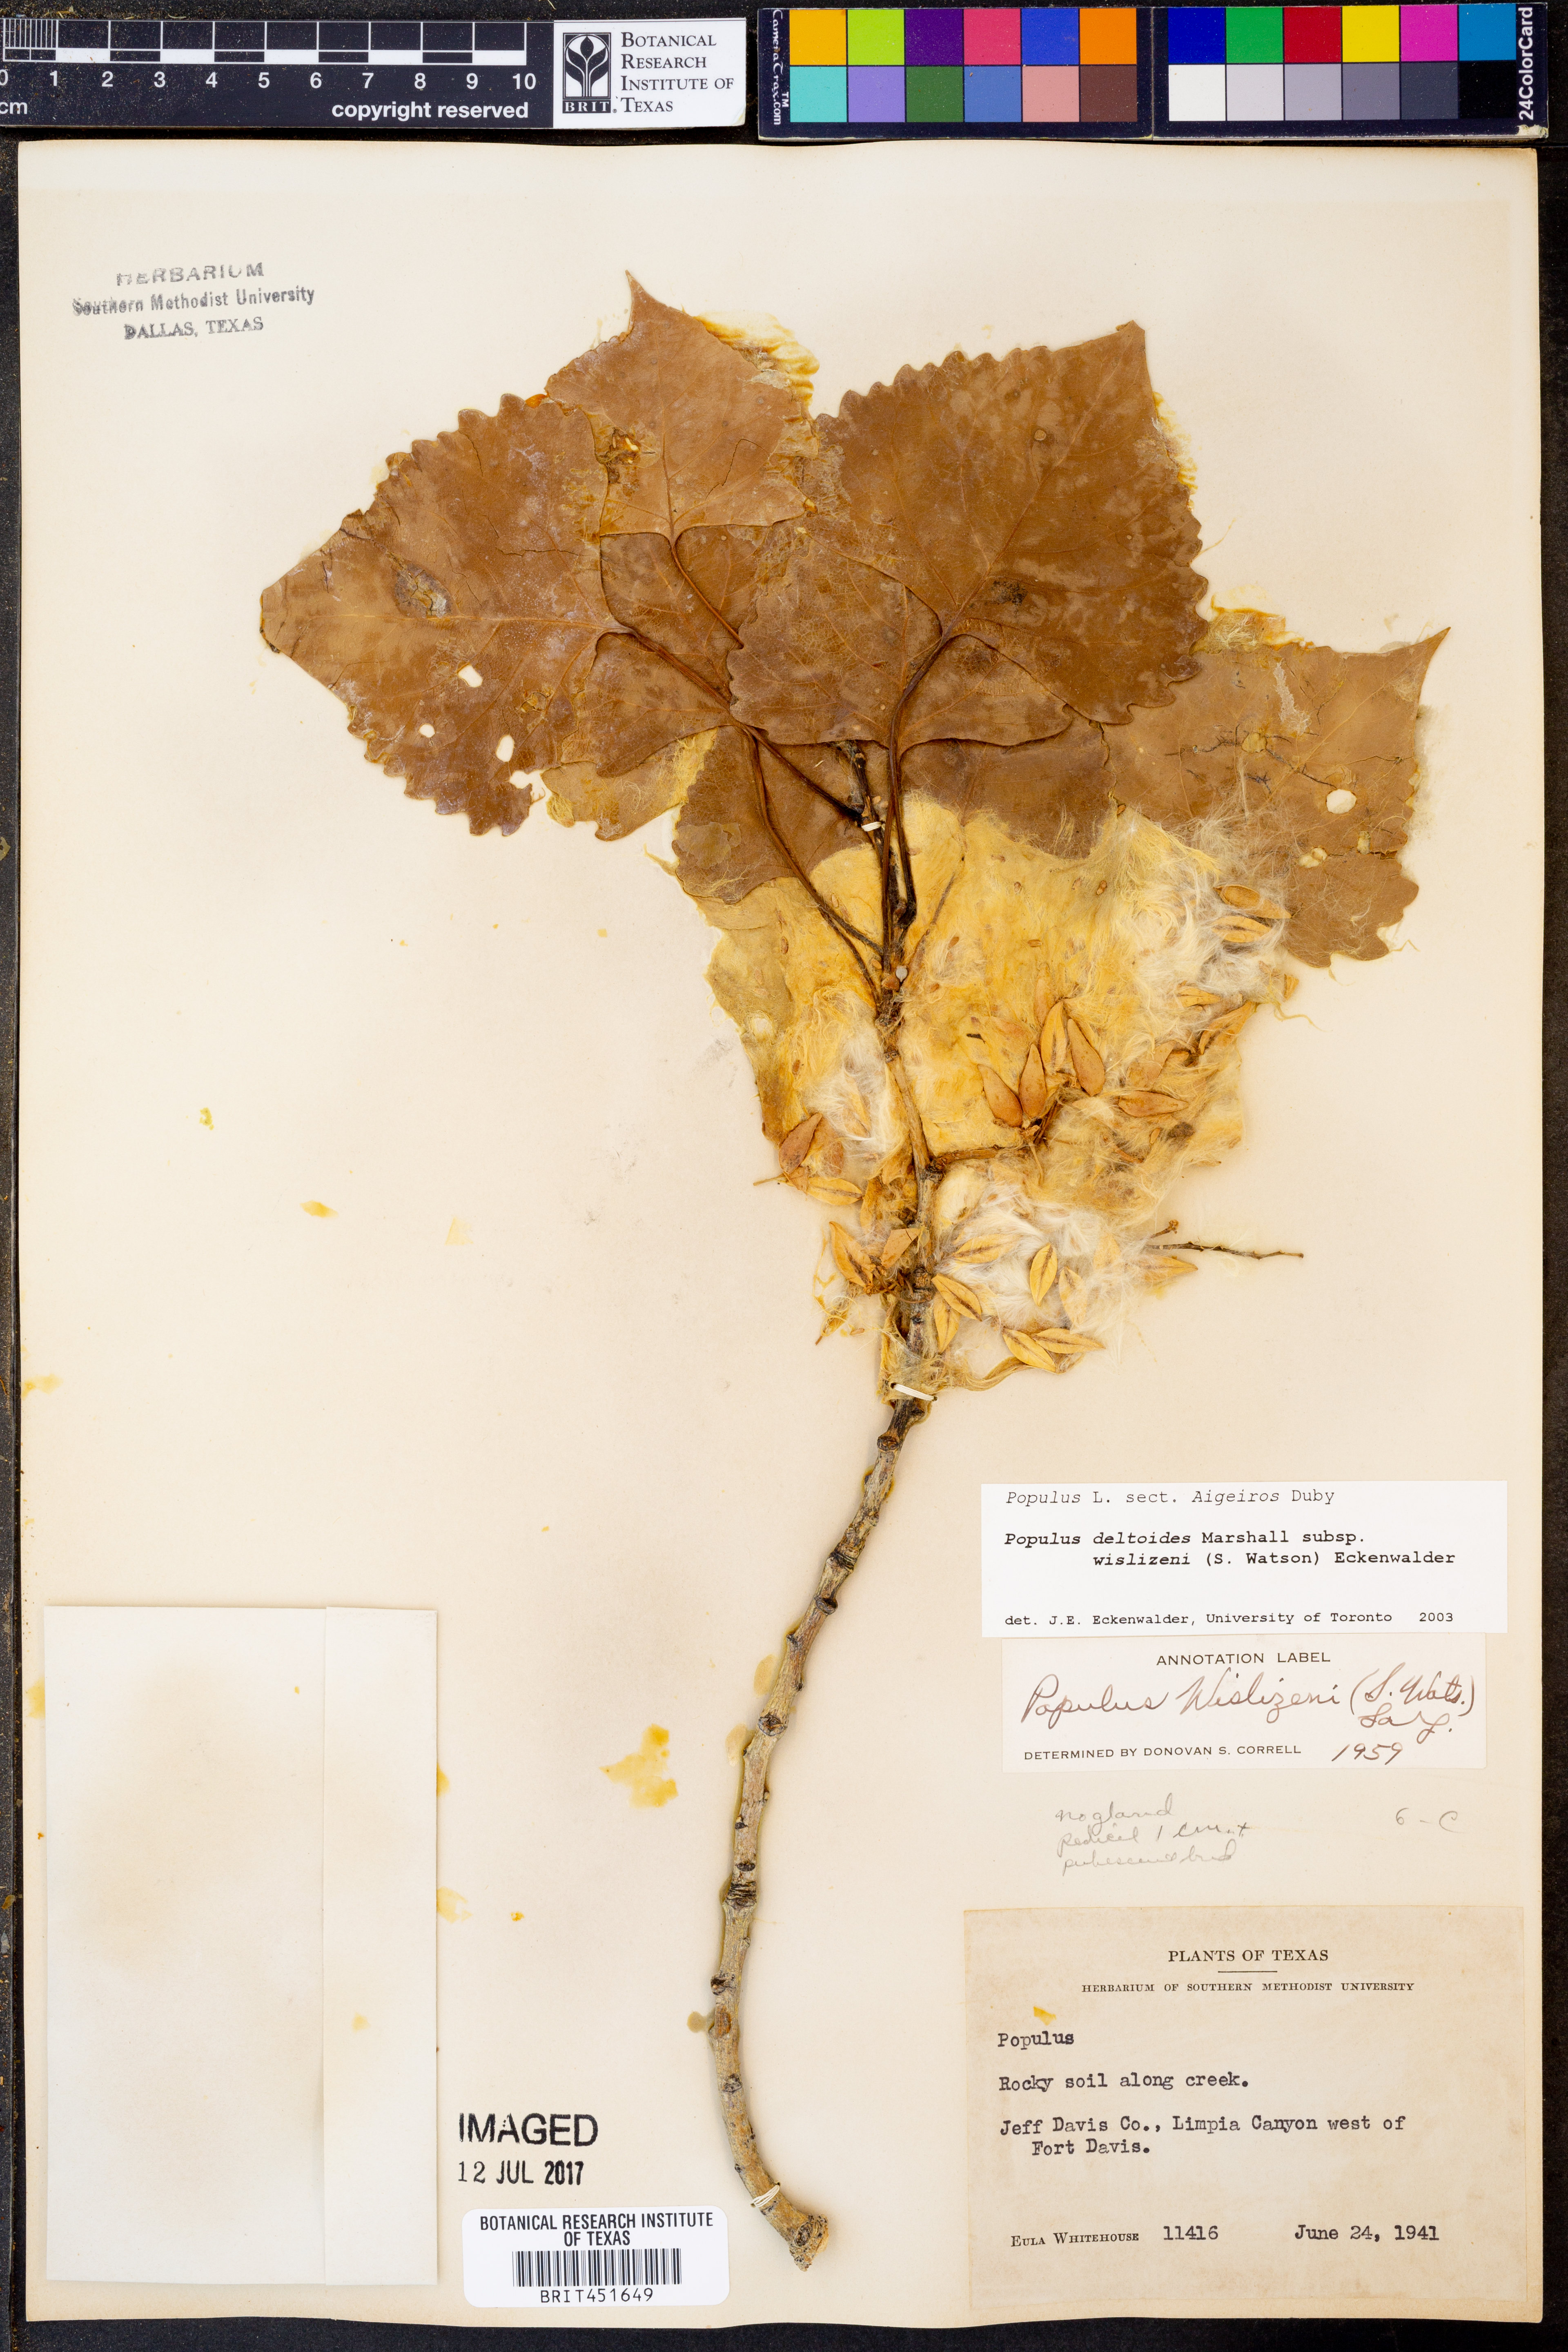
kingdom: Plantae
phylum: Tracheophyta
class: Magnoliopsida
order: Malpighiales
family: Salicaceae
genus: Populus
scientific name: Populus deltoides
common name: Eastern cottonwood
